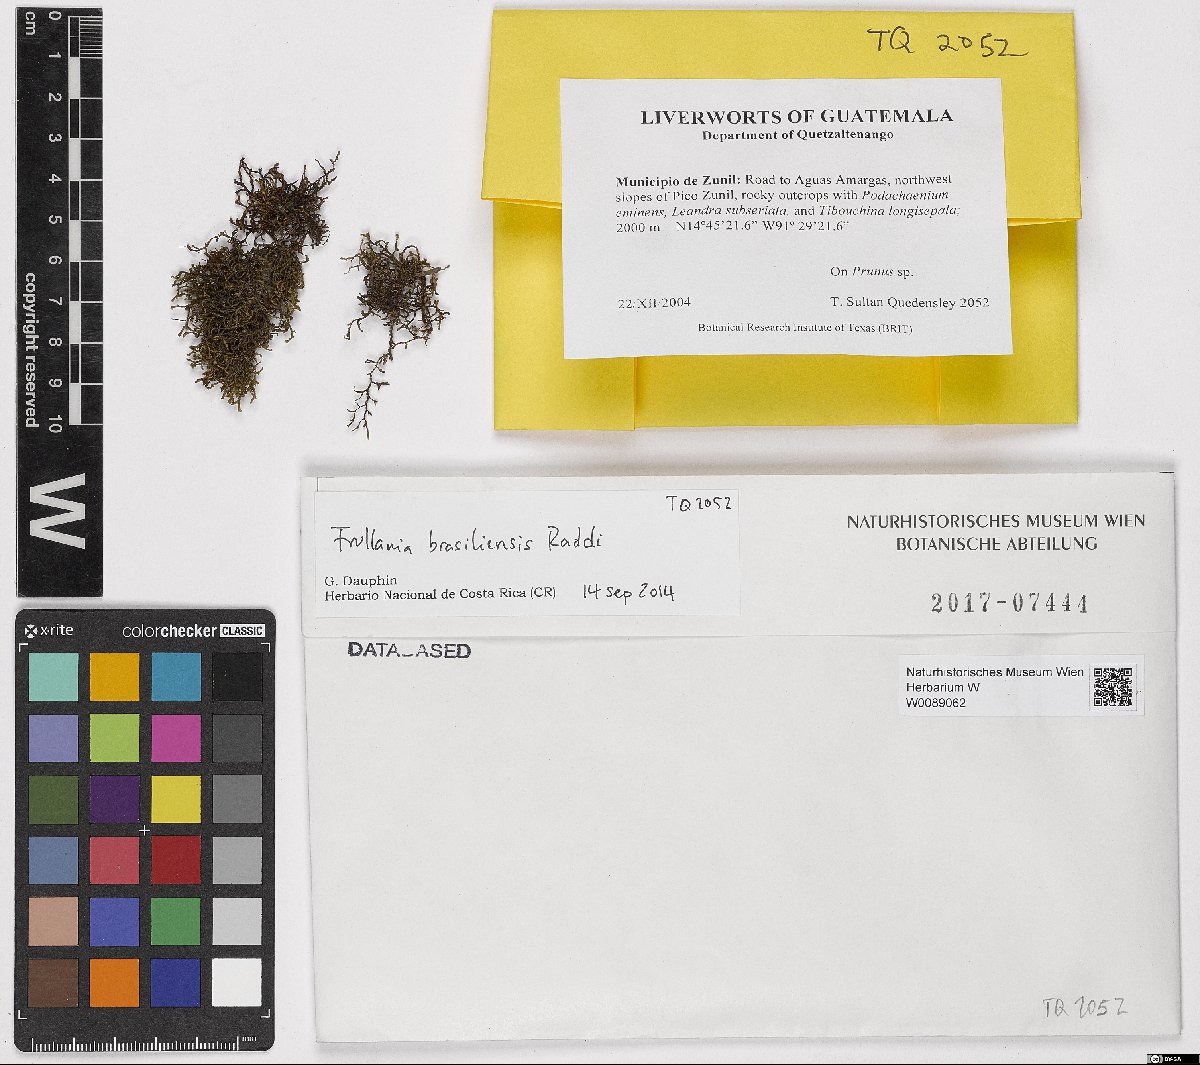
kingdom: Plantae
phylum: Marchantiophyta
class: Jungermanniopsida
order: Porellales
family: Frullaniaceae
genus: Frullania
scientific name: Frullania brasiliensis
